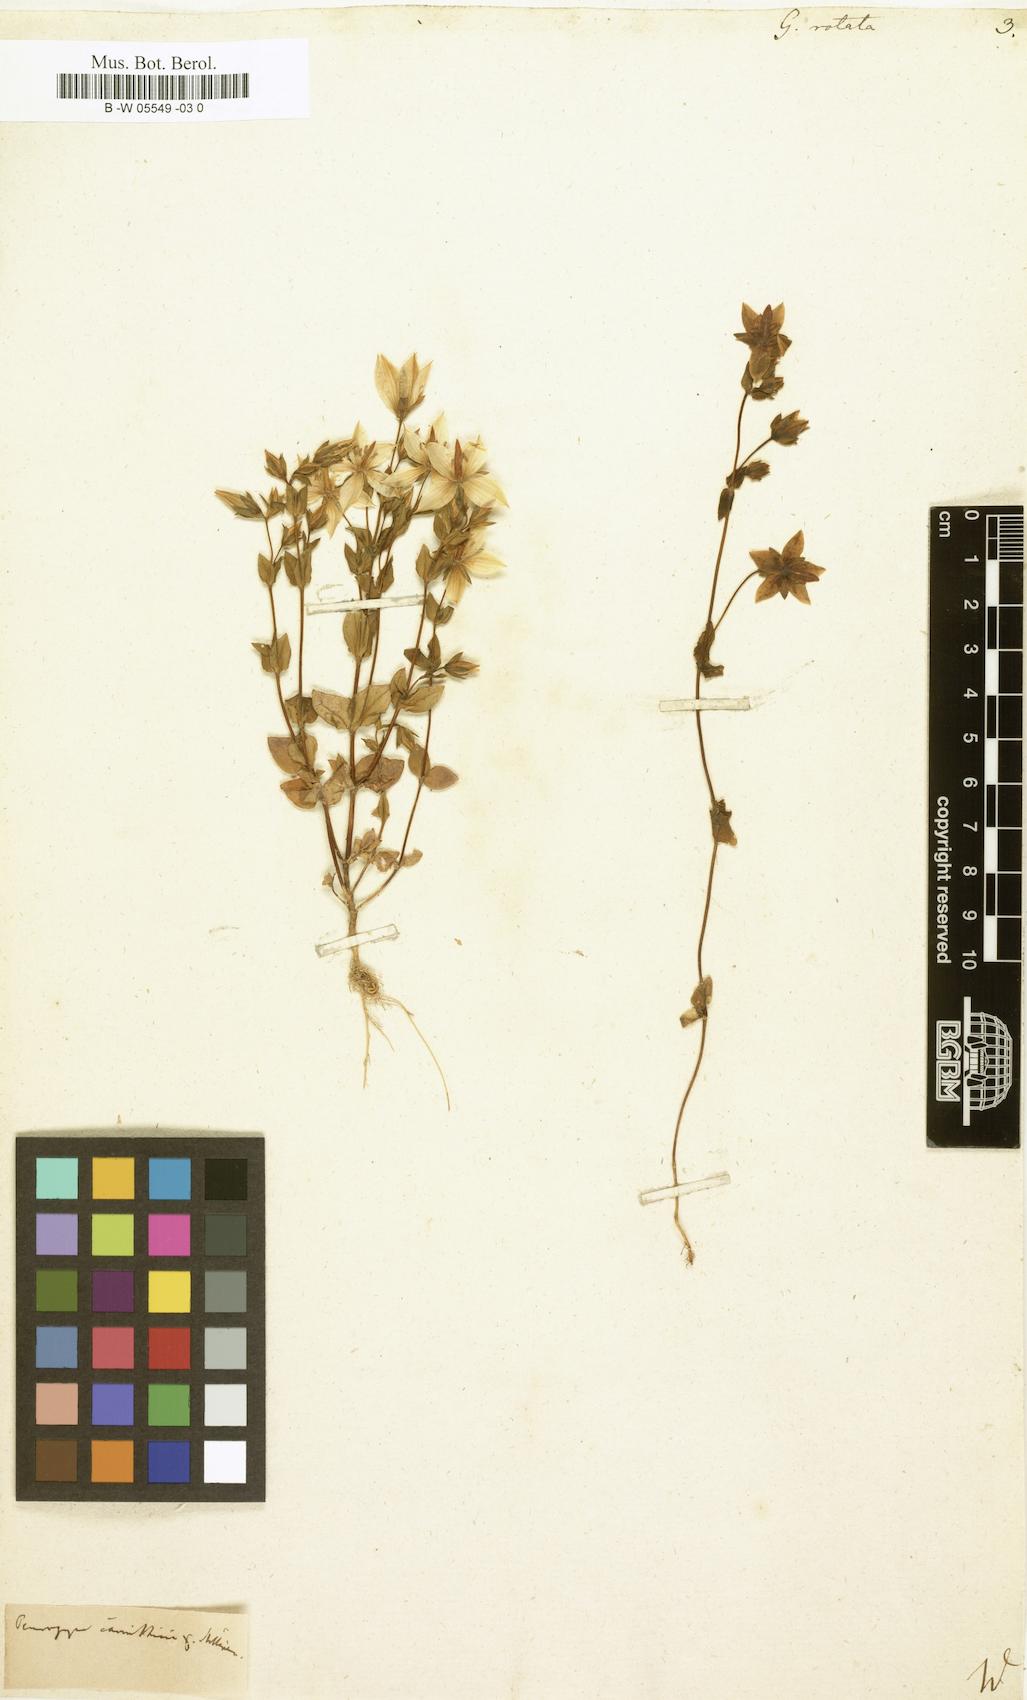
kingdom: Plantae
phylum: Tracheophyta
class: Magnoliopsida
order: Gentianales
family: Gentianaceae
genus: Lomatogonium
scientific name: Lomatogonium carinthiacum
